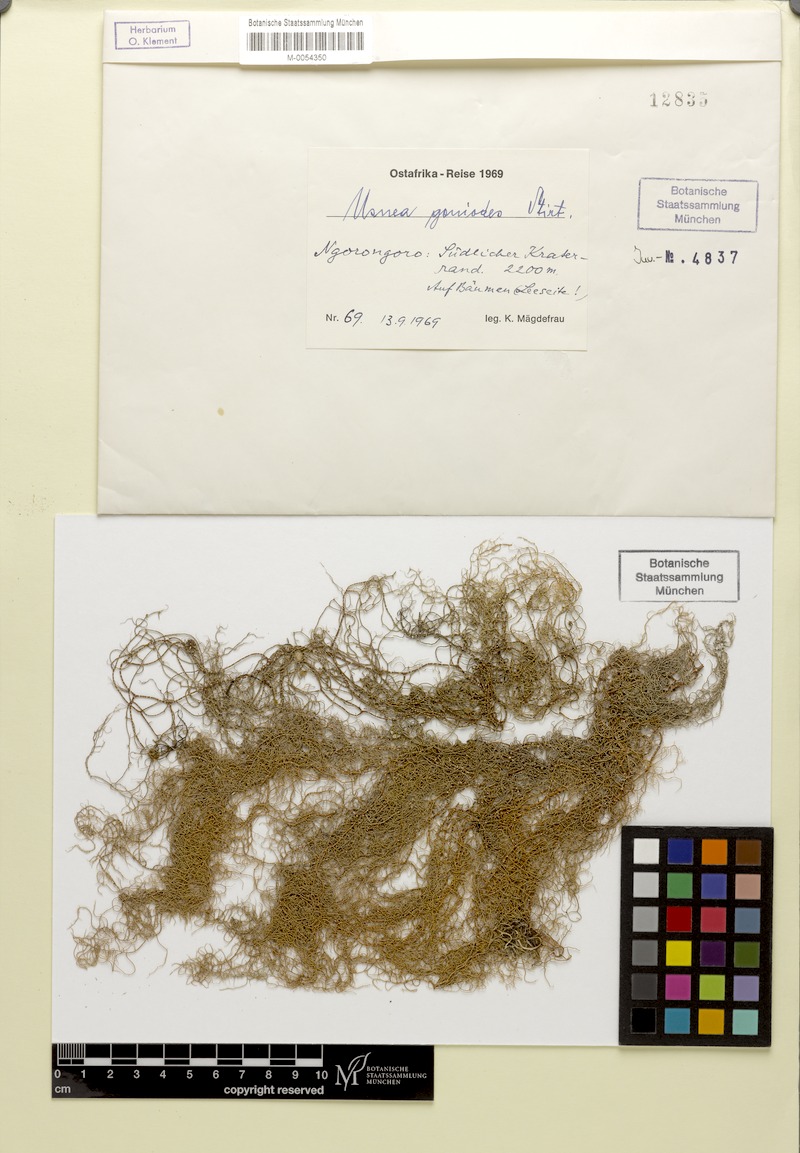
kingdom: Fungi
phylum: Ascomycota
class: Lecanoromycetes
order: Lecanorales
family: Parmeliaceae
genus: Usnea
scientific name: Usnea goniodes
